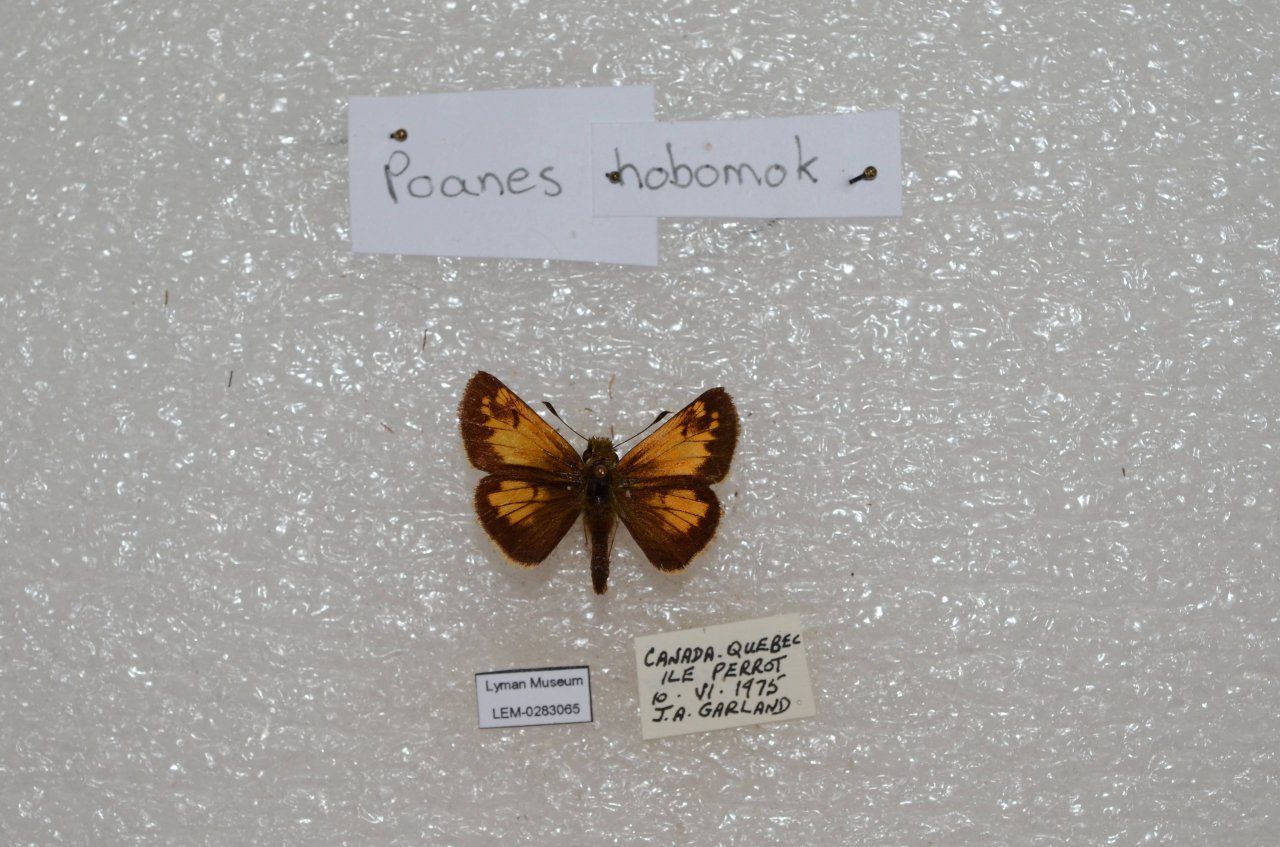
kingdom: Animalia
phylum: Arthropoda
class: Insecta
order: Lepidoptera
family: Hesperiidae
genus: Lon
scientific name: Lon hobomok
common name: Hobomok Skipper
